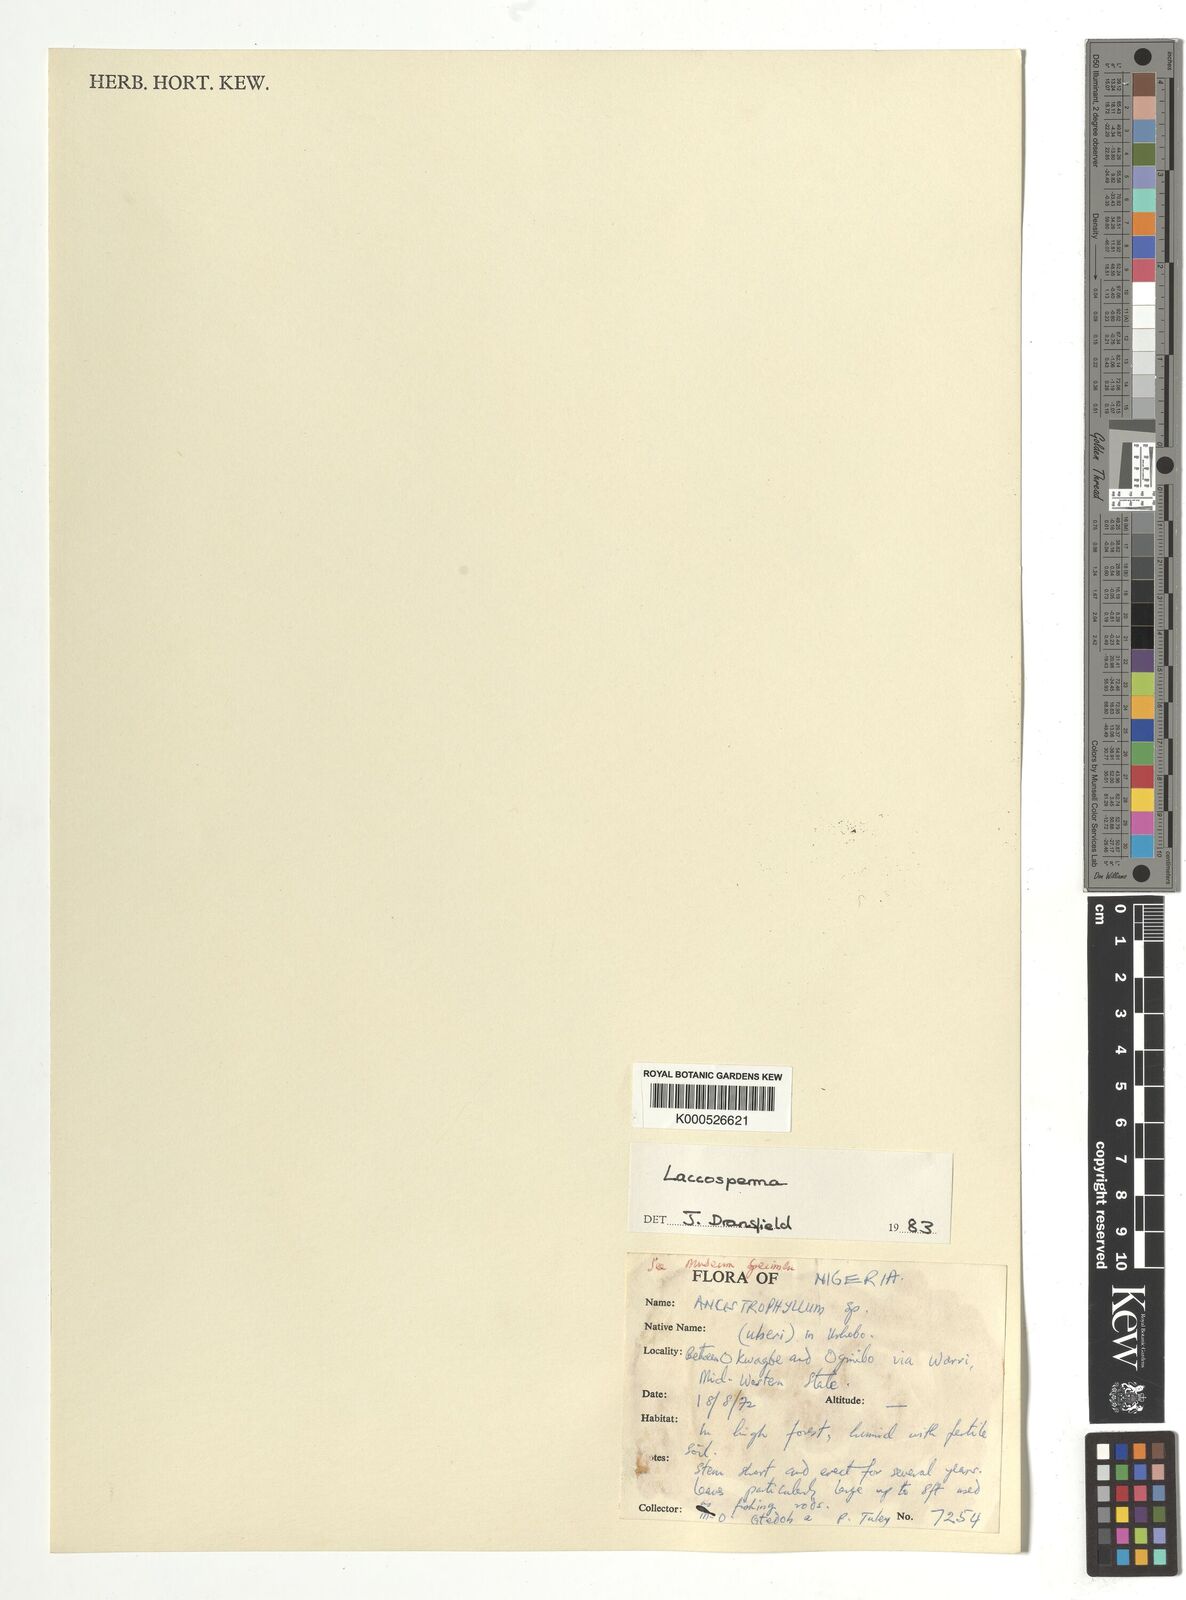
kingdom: Plantae
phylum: Tracheophyta
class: Liliopsida
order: Arecales
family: Arecaceae
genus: Laccosperma
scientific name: Laccosperma
